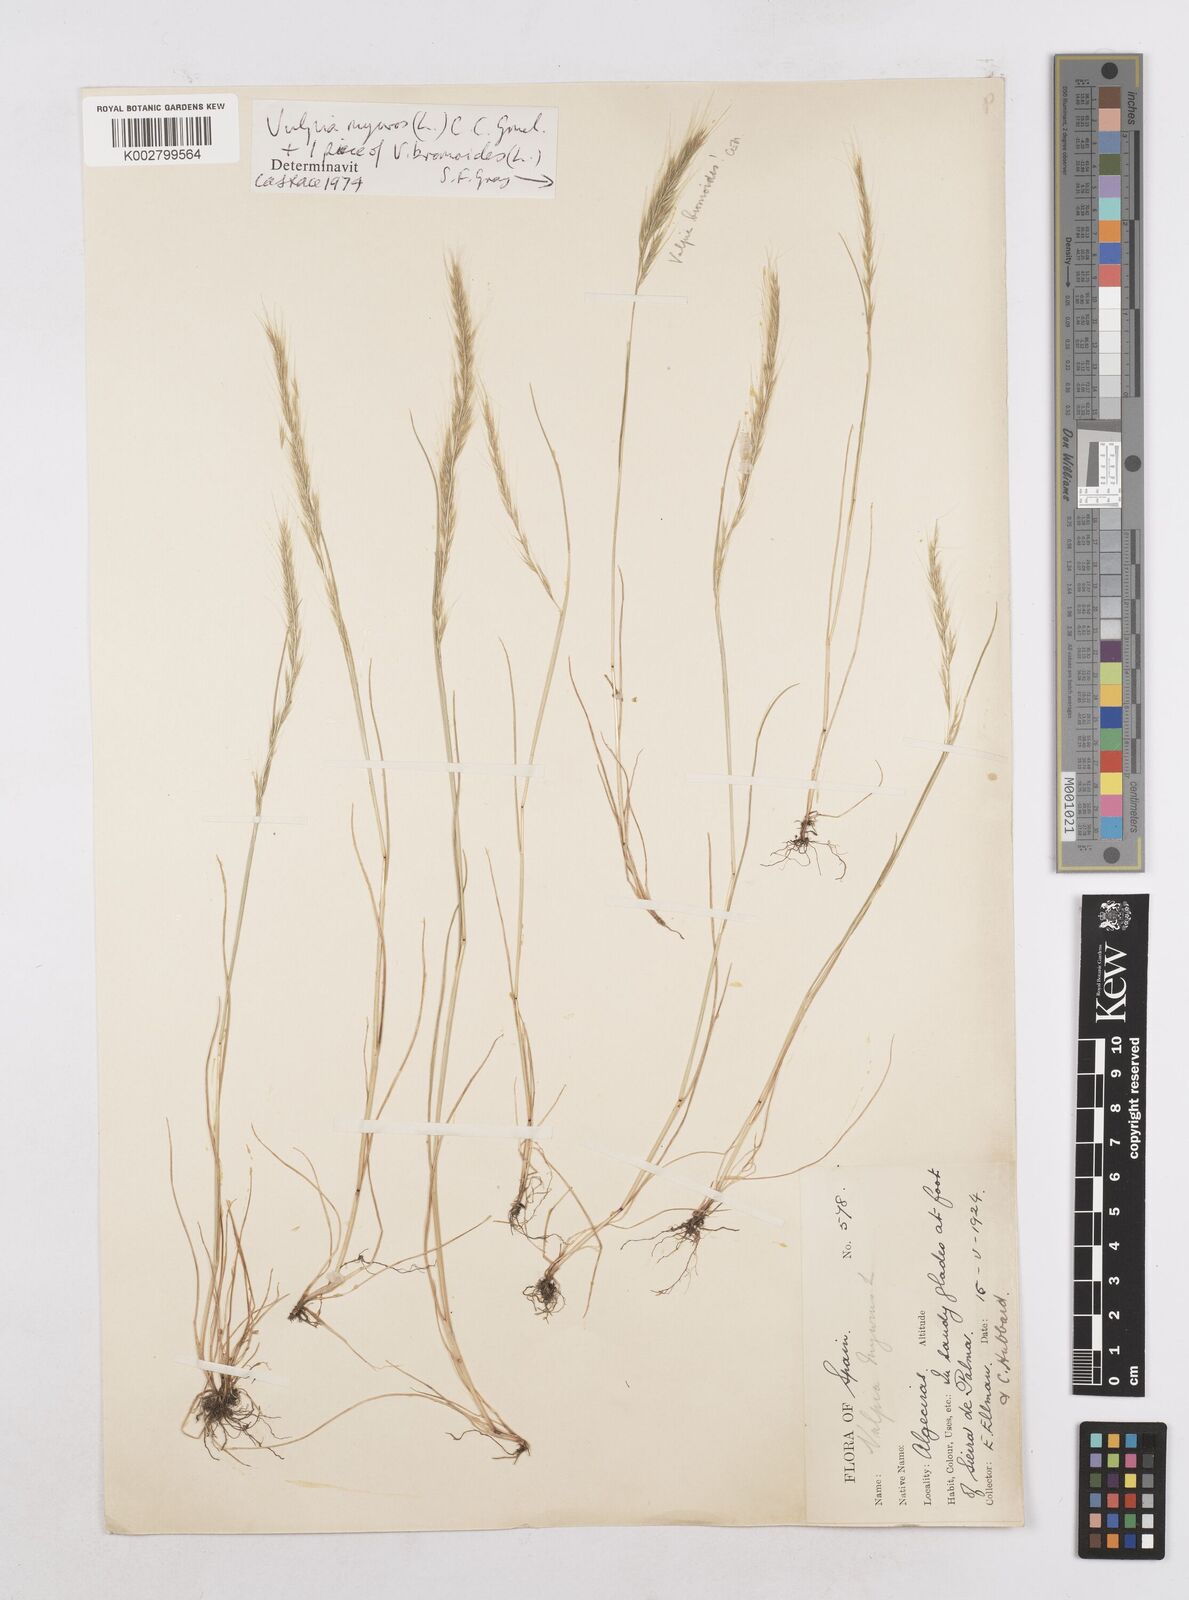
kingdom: Plantae
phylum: Tracheophyta
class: Liliopsida
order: Poales
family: Poaceae
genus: Festuca
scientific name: Festuca myuros
